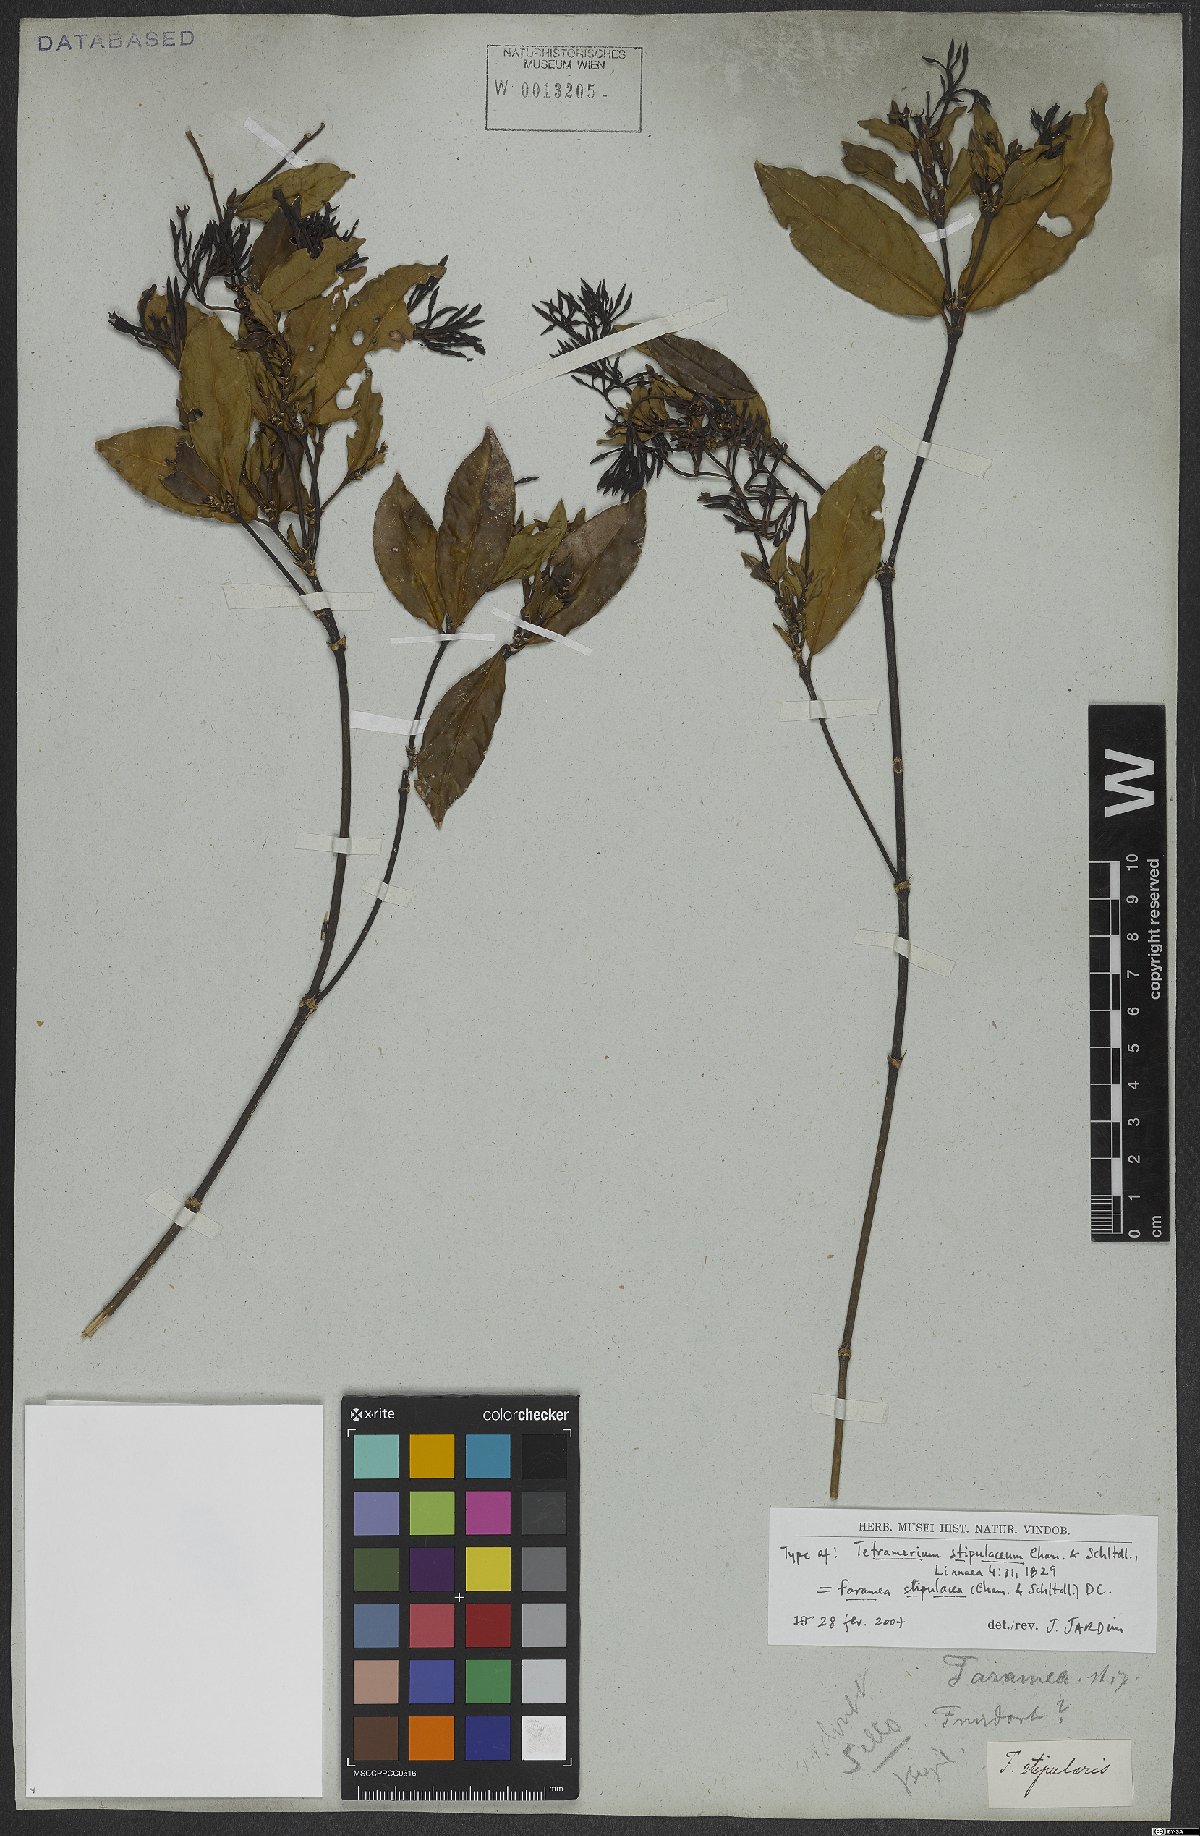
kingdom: Plantae
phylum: Tracheophyta
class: Magnoliopsida
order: Gentianales
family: Rubiaceae
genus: Faramea
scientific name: Faramea stipulacea
